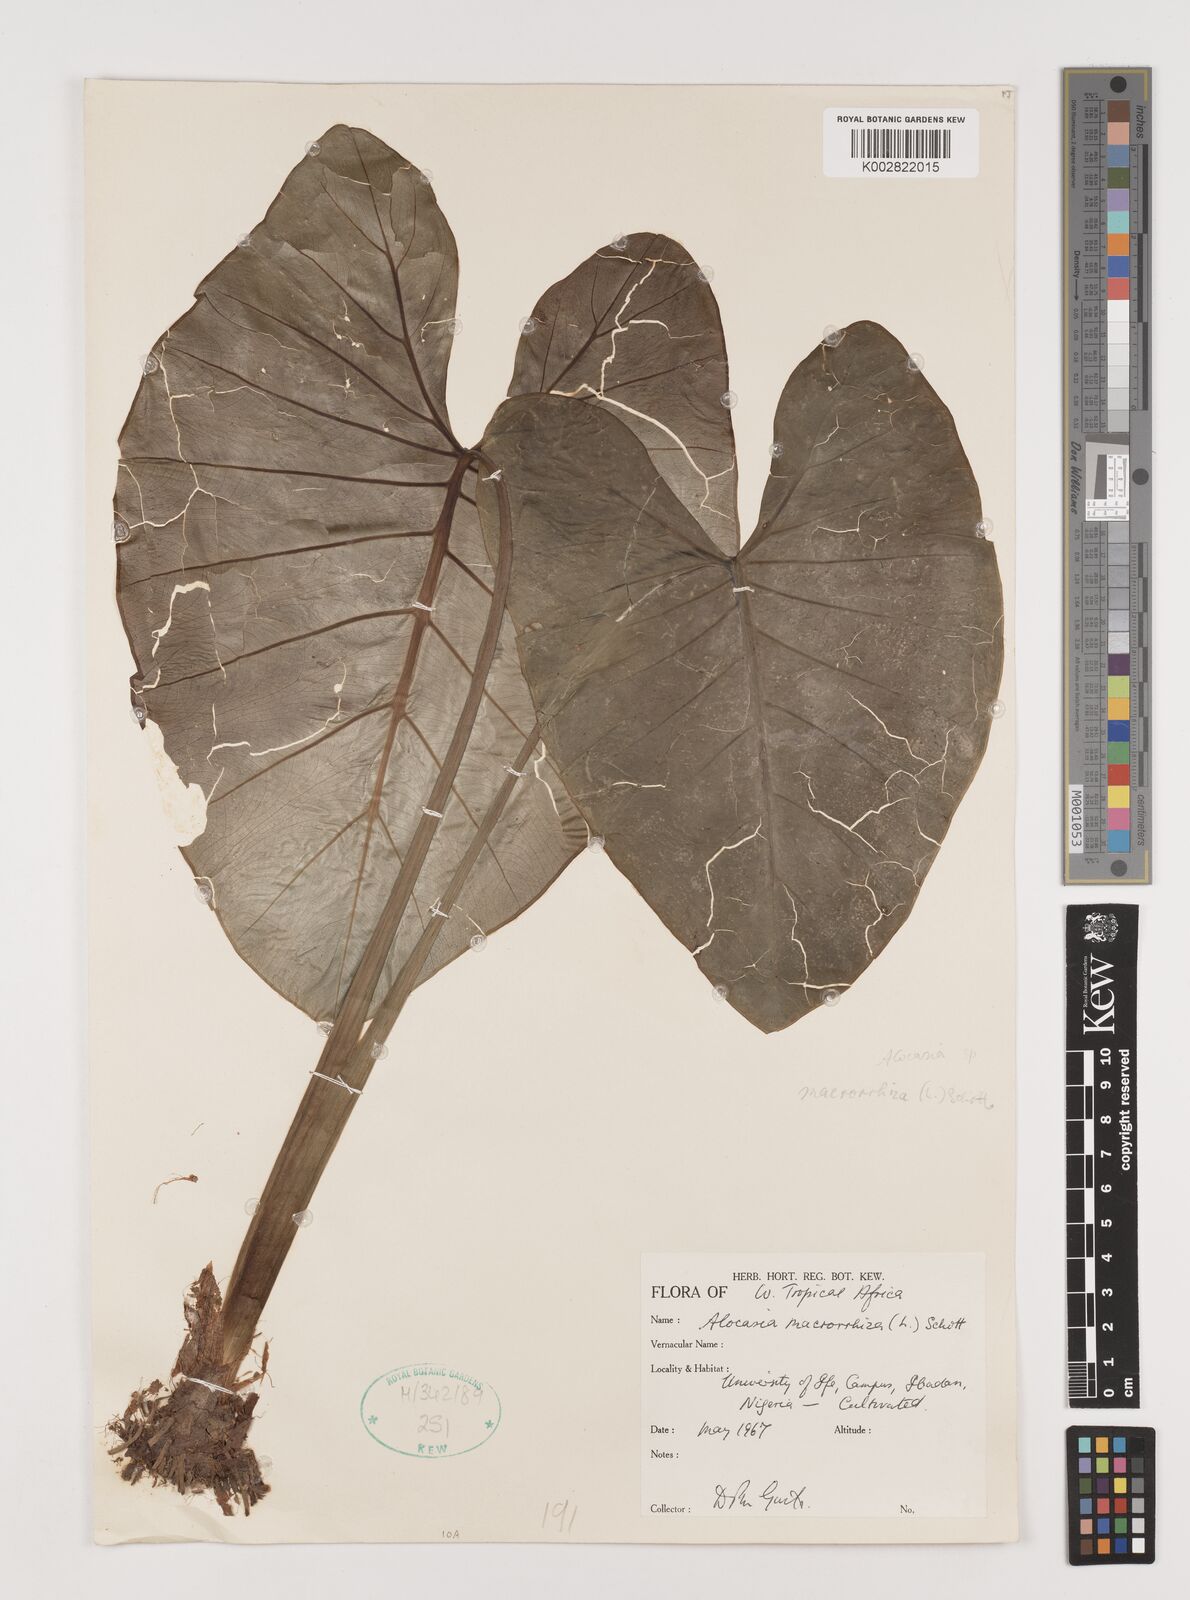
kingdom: Plantae
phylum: Tracheophyta
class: Liliopsida
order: Alismatales
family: Araceae
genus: Alocasia
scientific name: Alocasia macrorrhizos
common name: Giant taro
